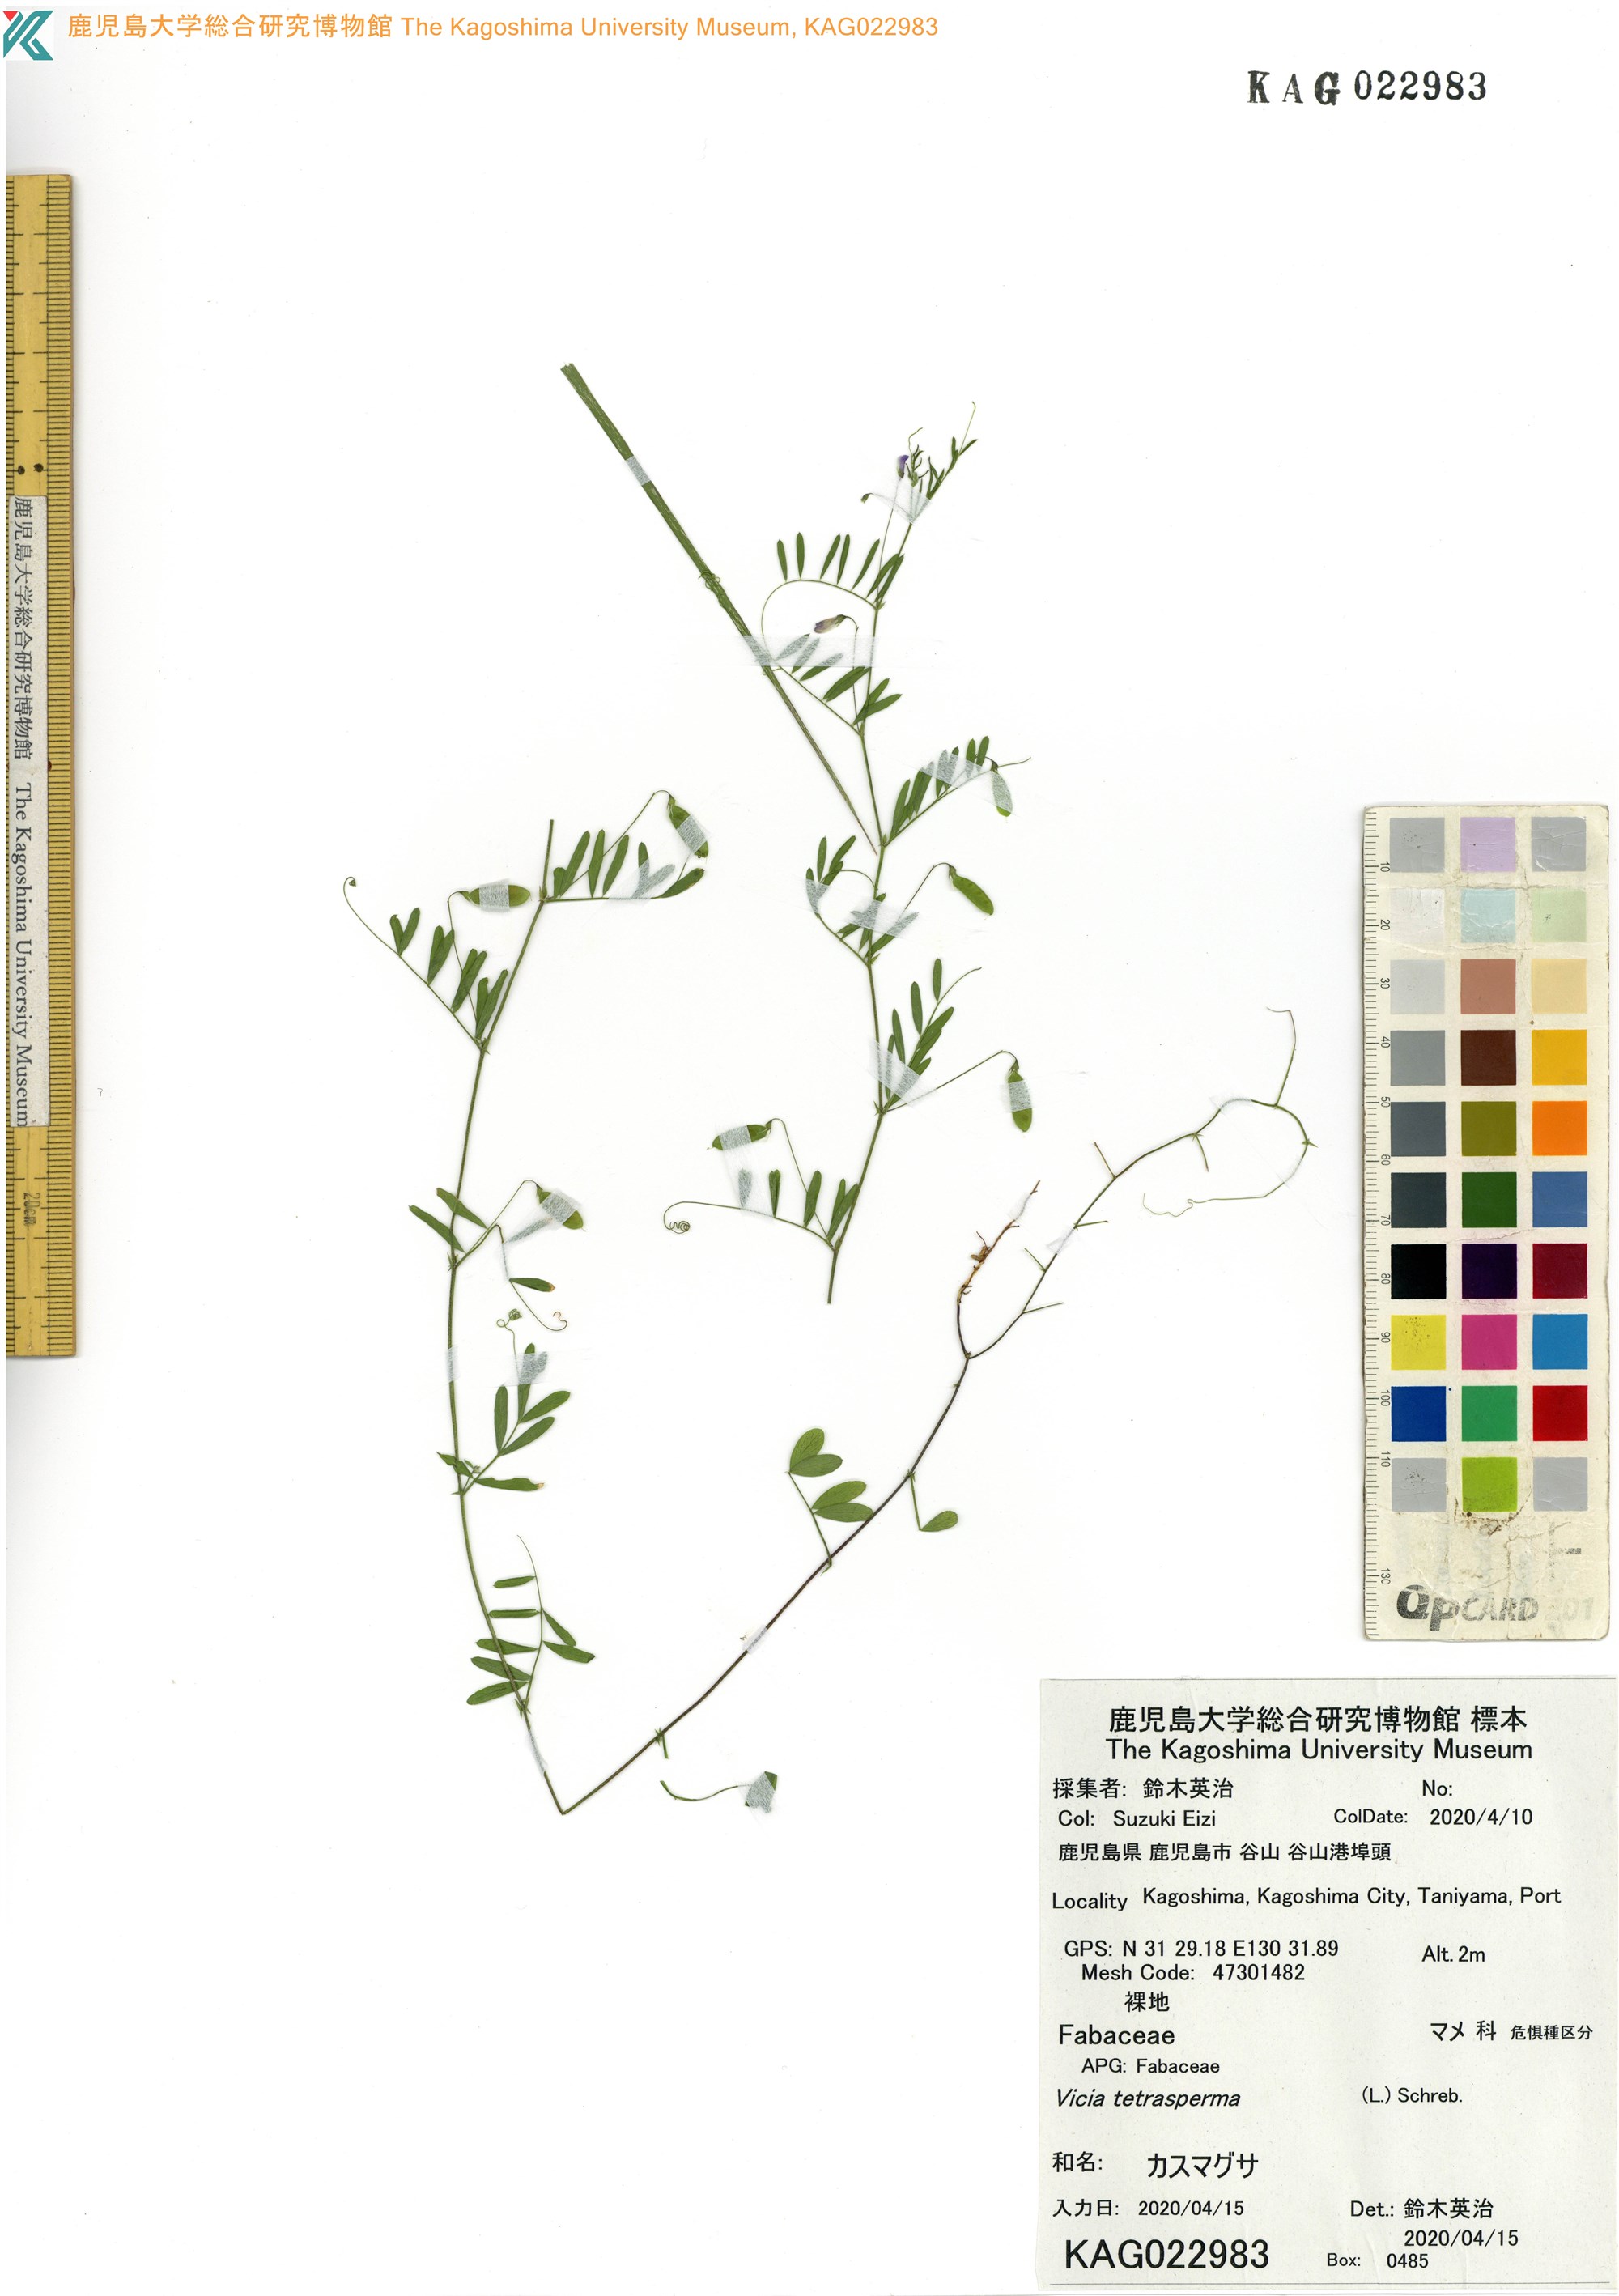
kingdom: Plantae
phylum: Tracheophyta
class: Magnoliopsida
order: Fabales
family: Fabaceae
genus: Vicia
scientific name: Vicia tetrasperma
